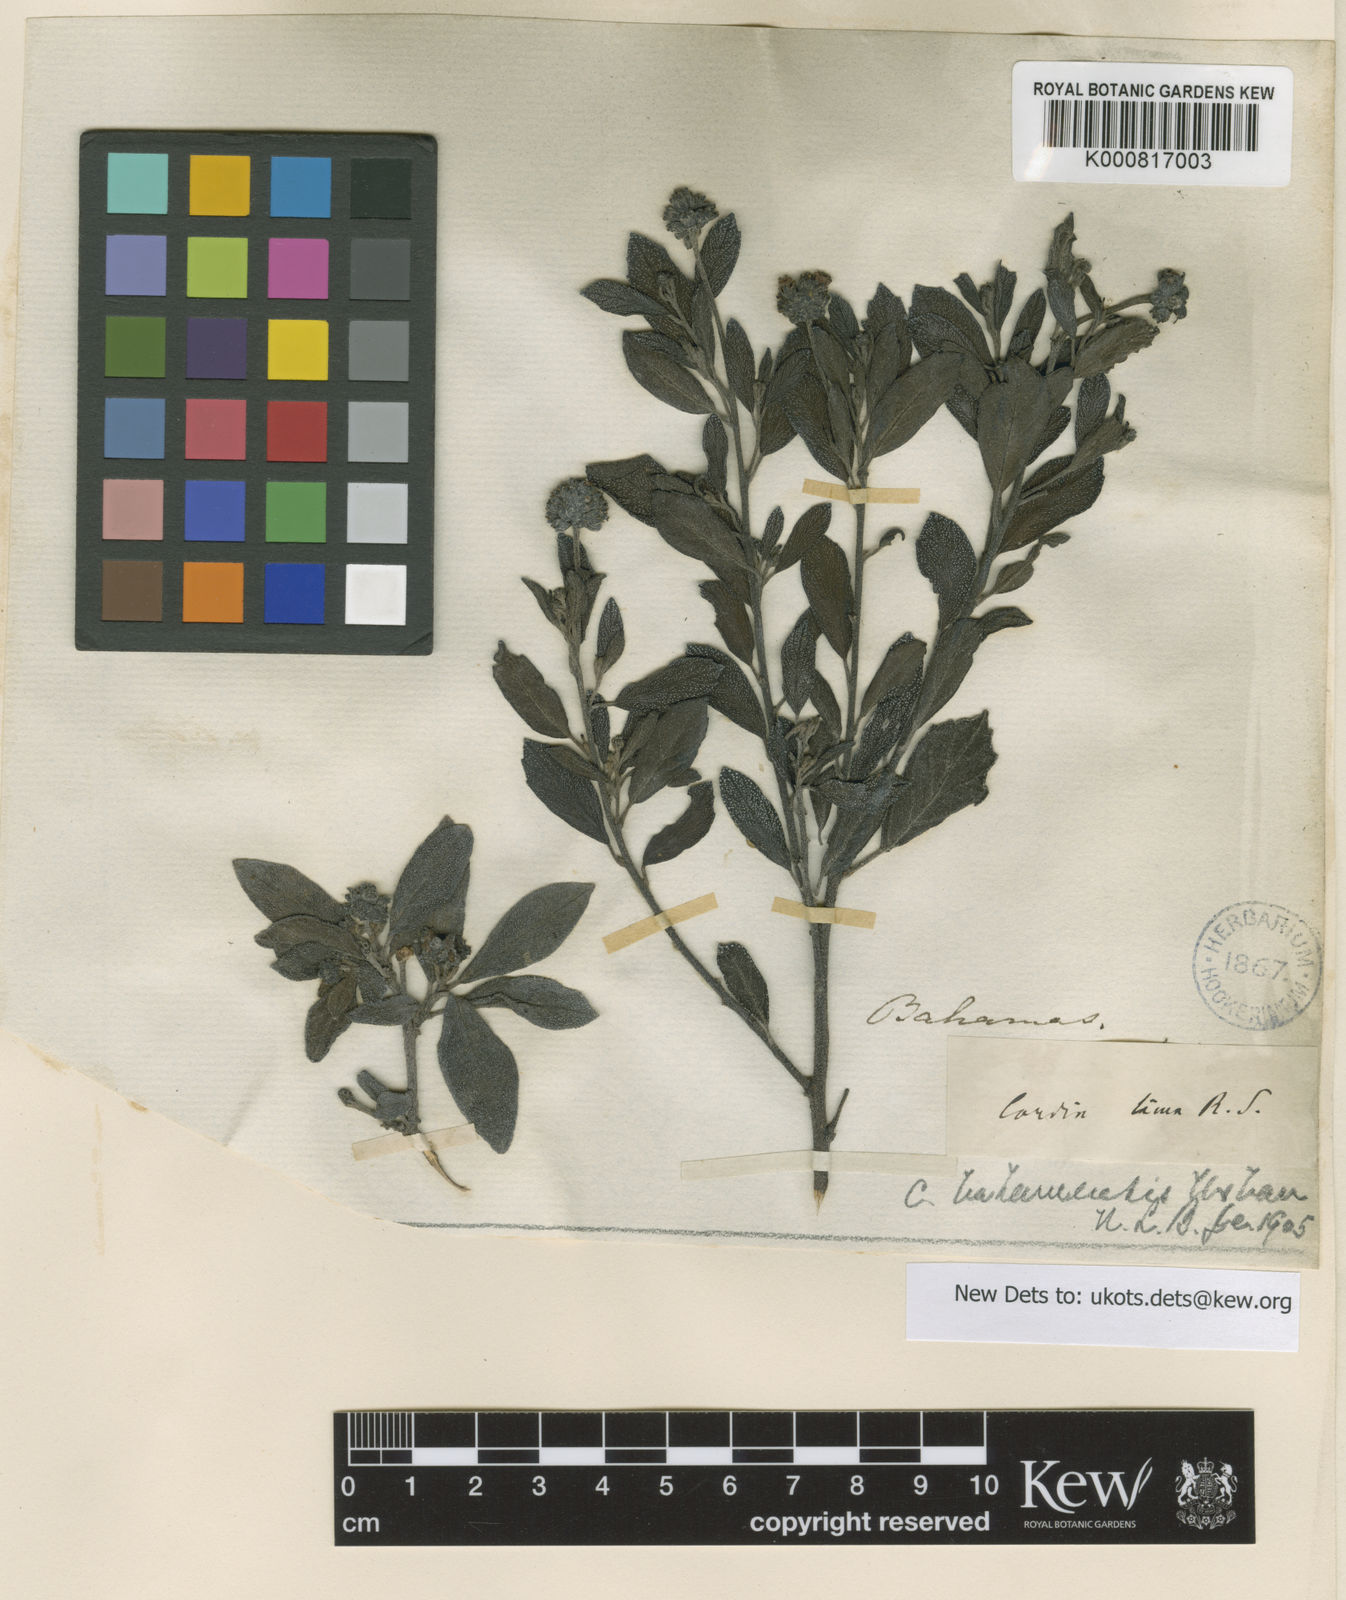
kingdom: Plantae
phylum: Tracheophyta
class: Magnoliopsida
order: Boraginales
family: Cordiaceae
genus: Varronia
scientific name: Varronia bahamensis
